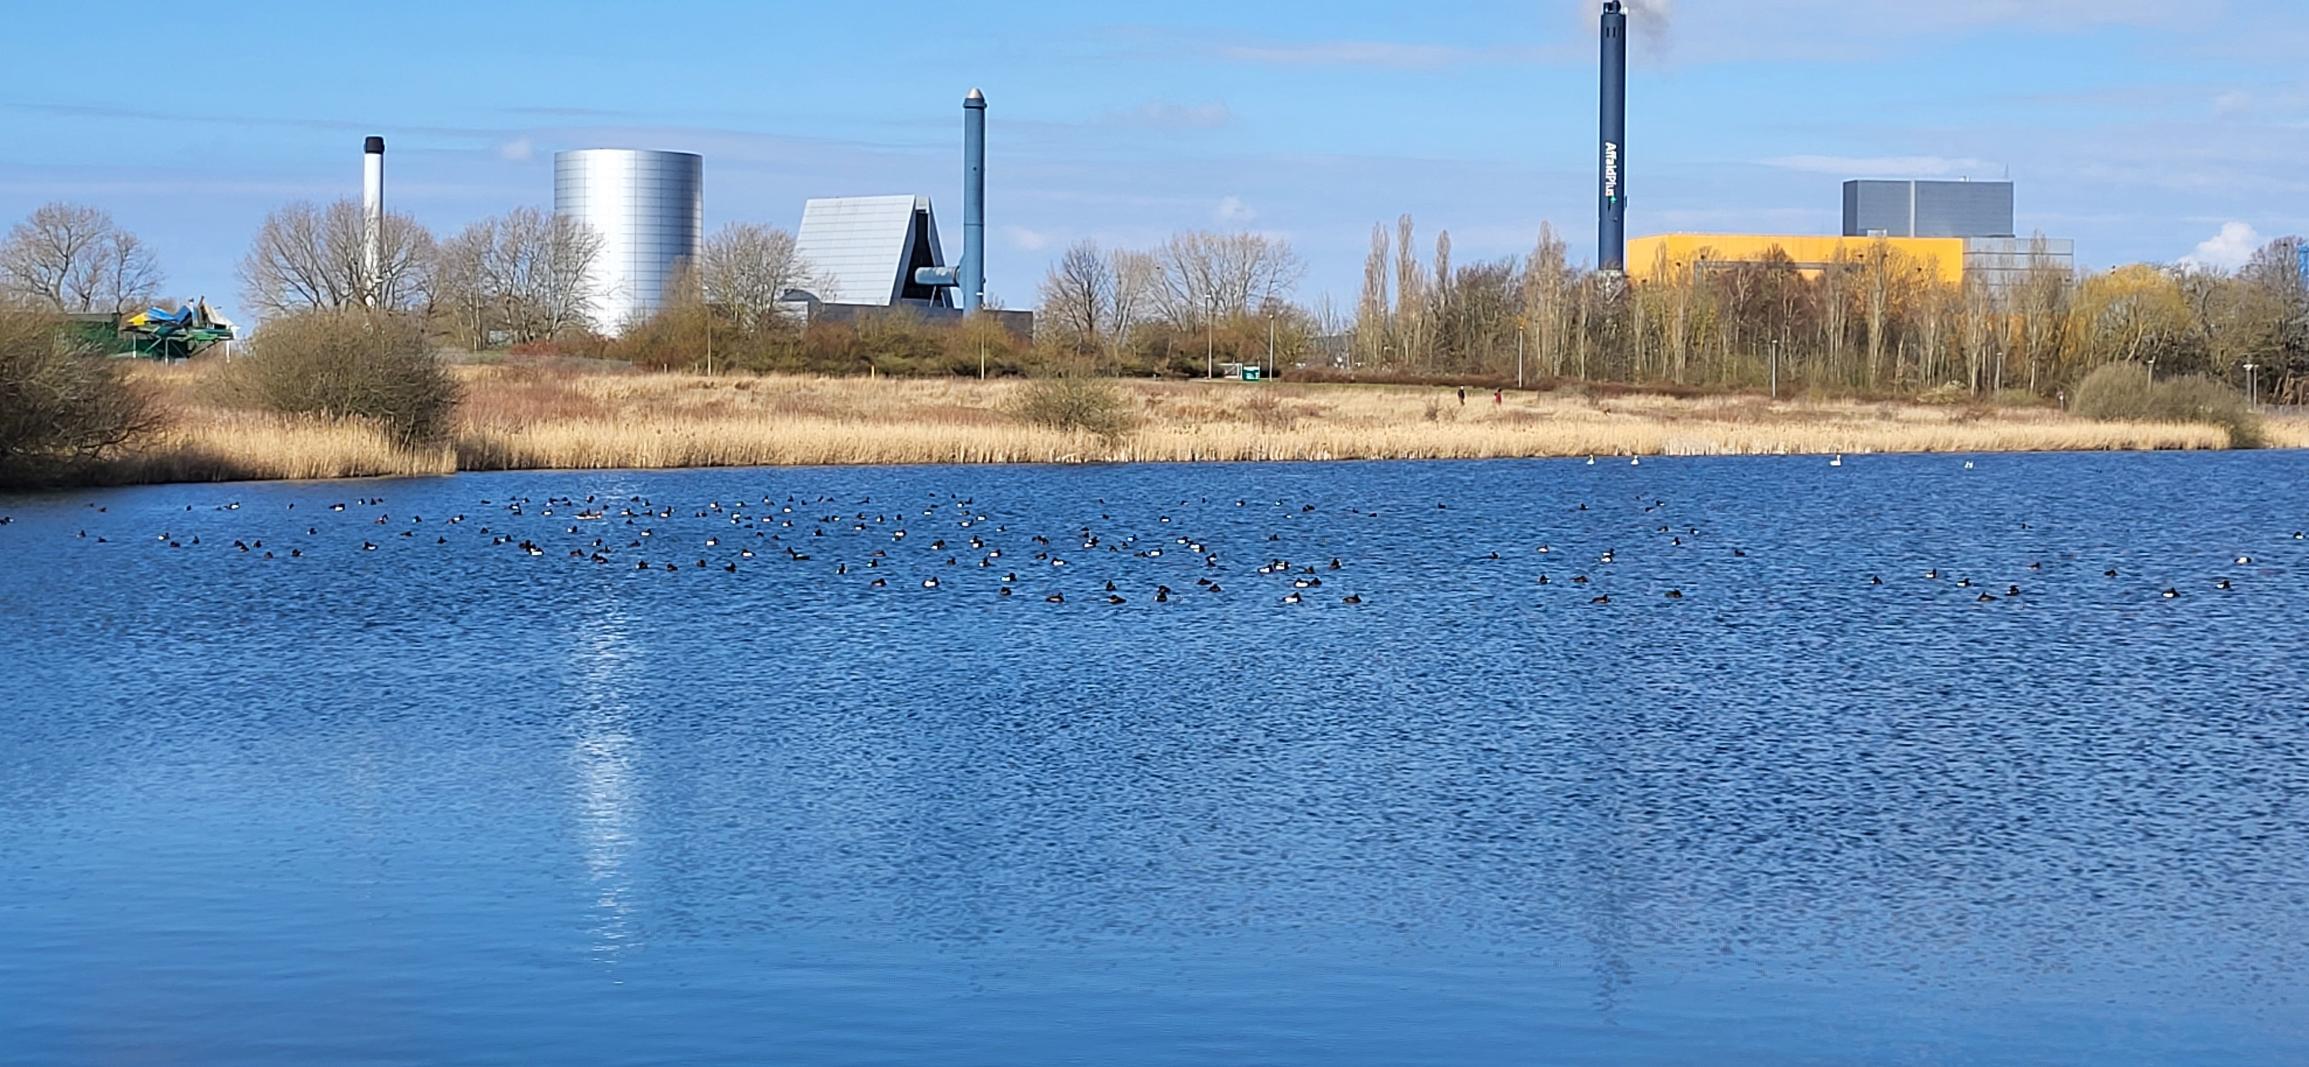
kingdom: Animalia
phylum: Chordata
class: Aves
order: Anseriformes
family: Anatidae
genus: Aythya
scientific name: Aythya fuligula
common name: Troldand
